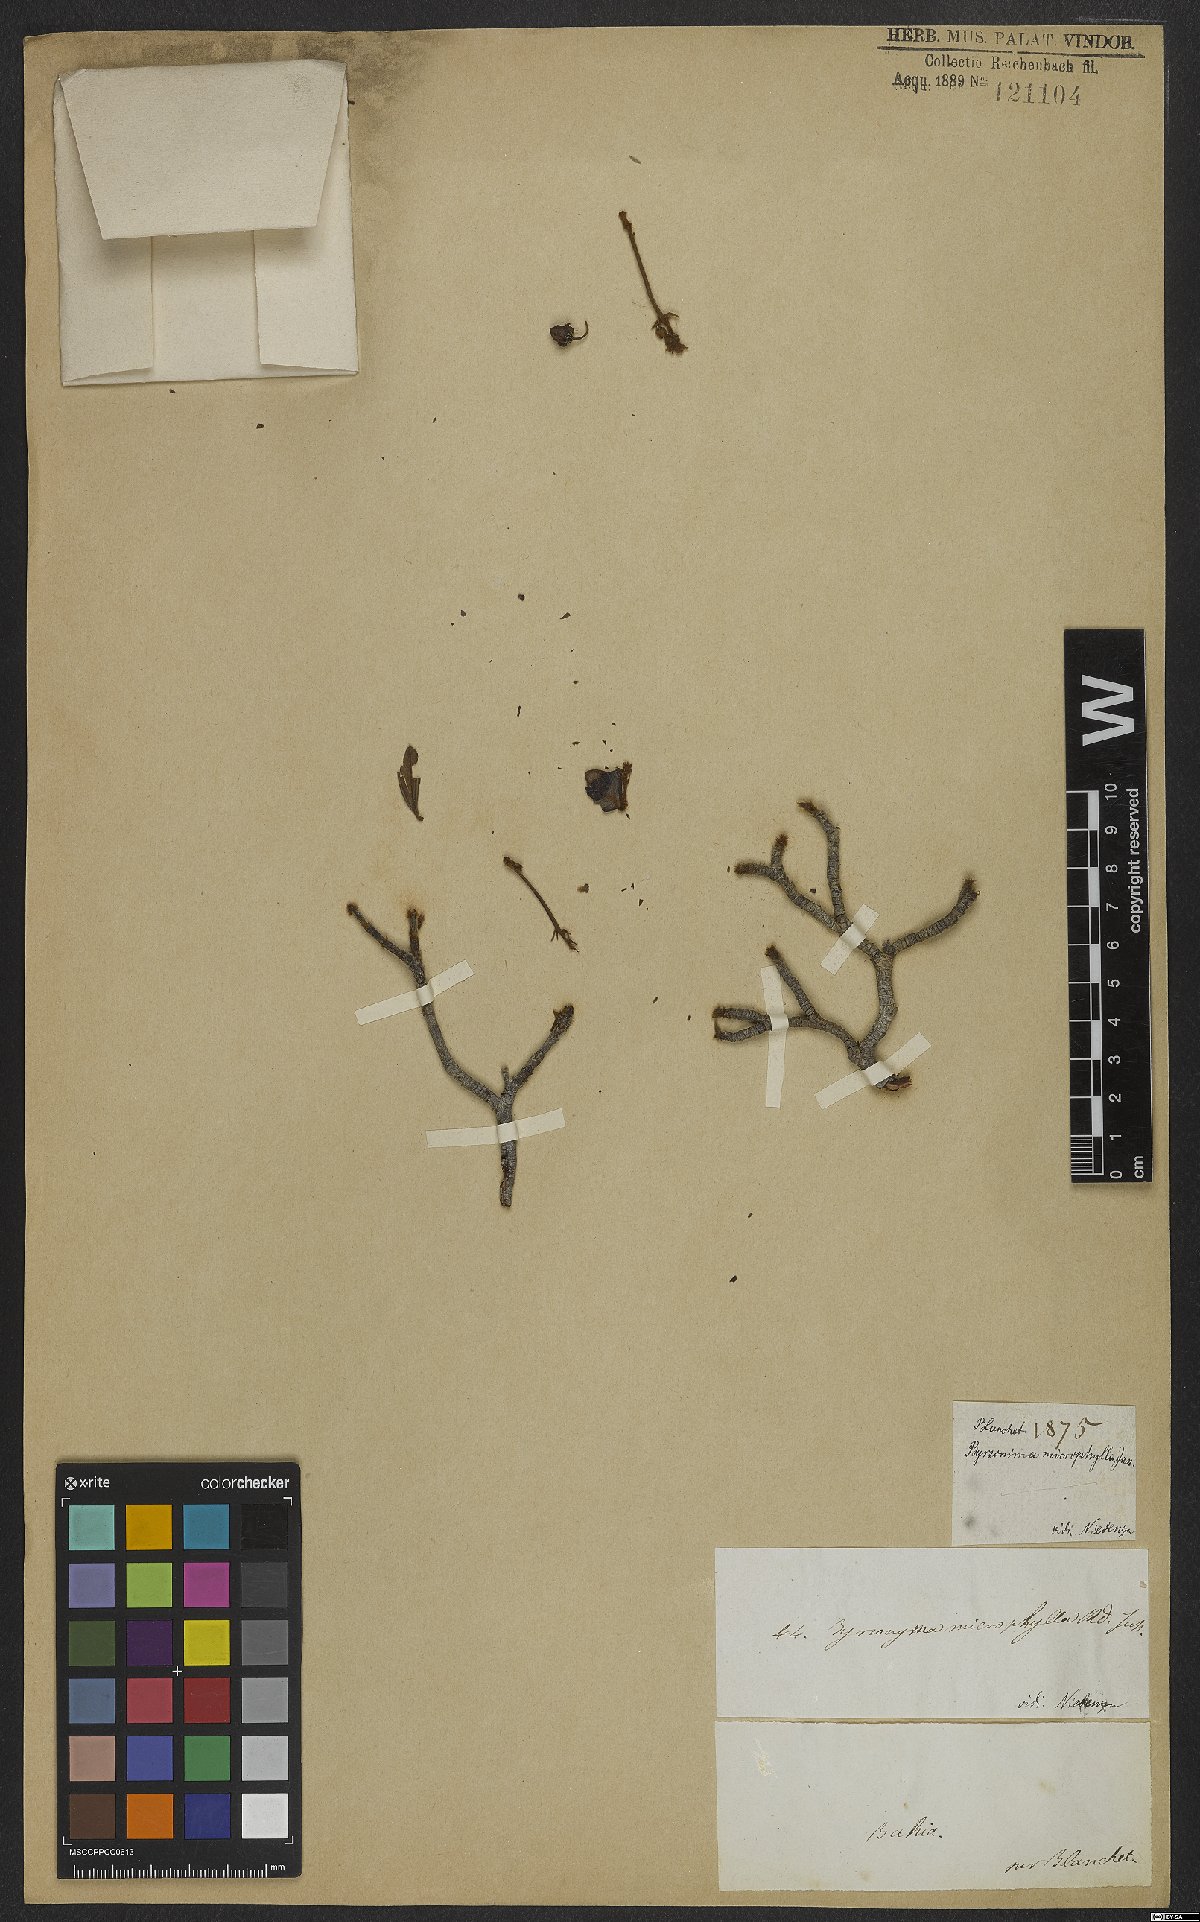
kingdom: Plantae
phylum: Tracheophyta
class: Magnoliopsida
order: Malpighiales
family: Malpighiaceae
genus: Byrsonima
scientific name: Byrsonima microphylla
